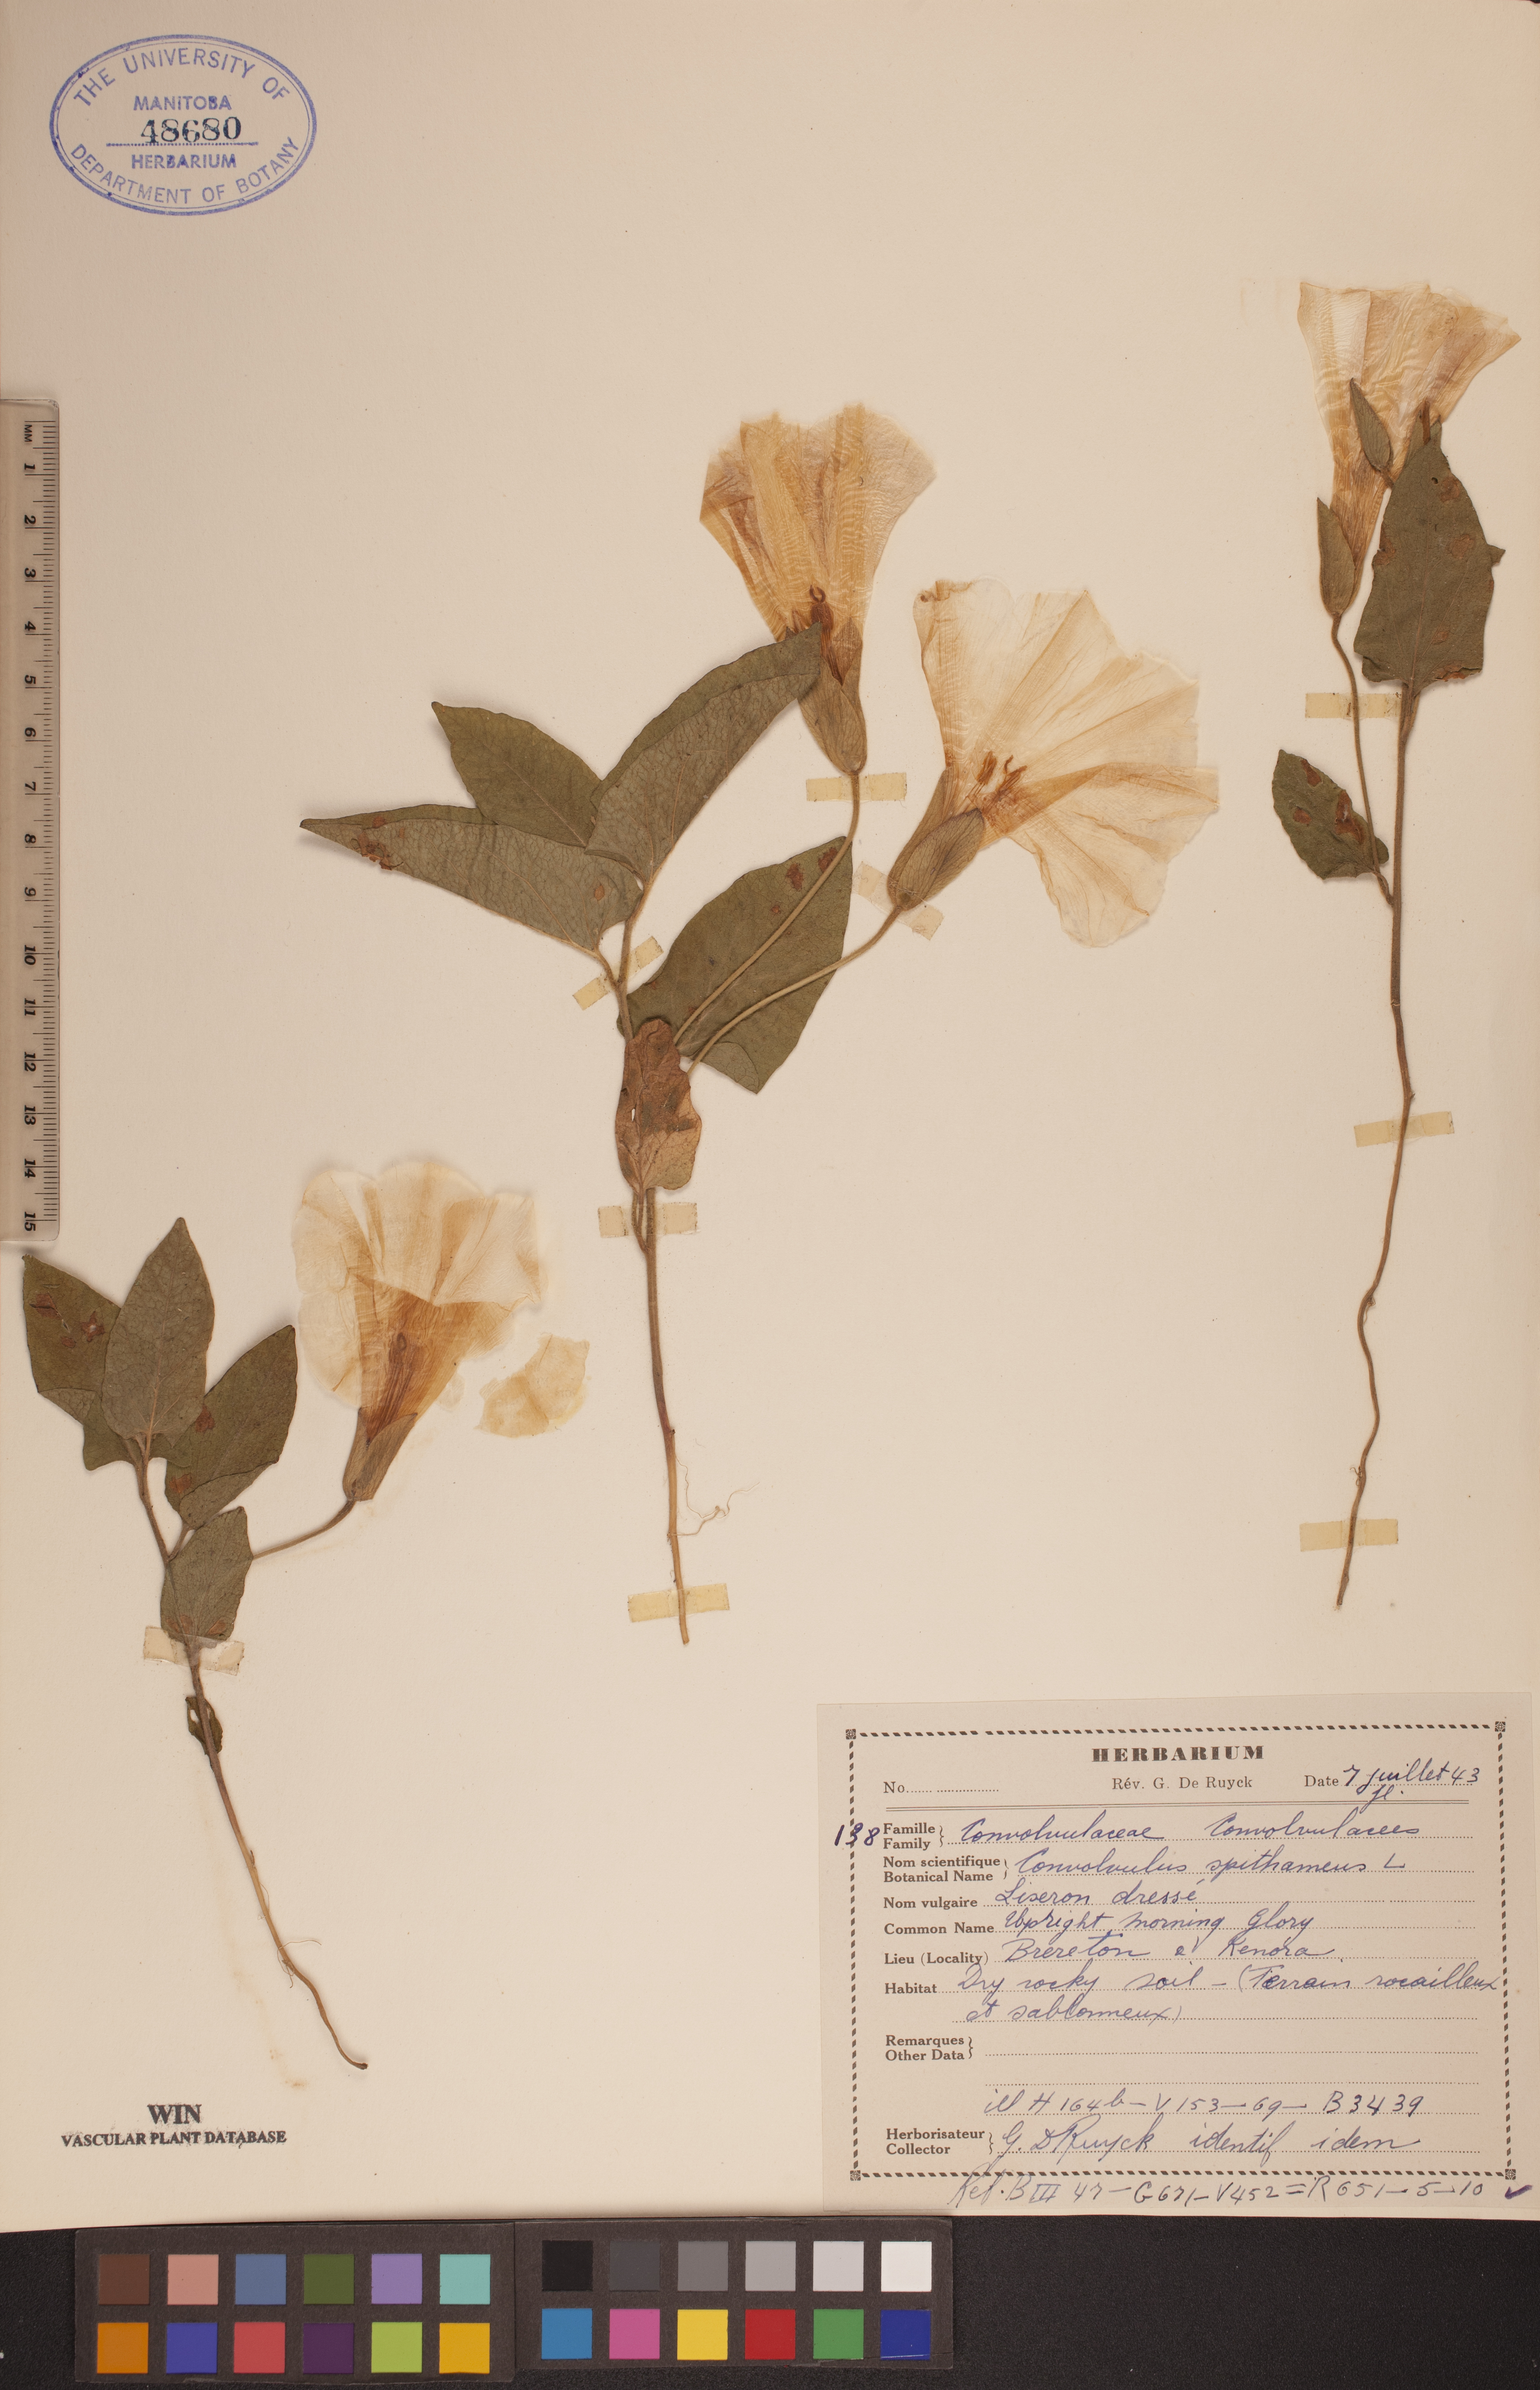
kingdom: Plantae
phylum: Tracheophyta
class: Magnoliopsida
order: Solanales
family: Convolvulaceae
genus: Calystegia
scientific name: Calystegia spithamaea
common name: Dwarf bindweed
